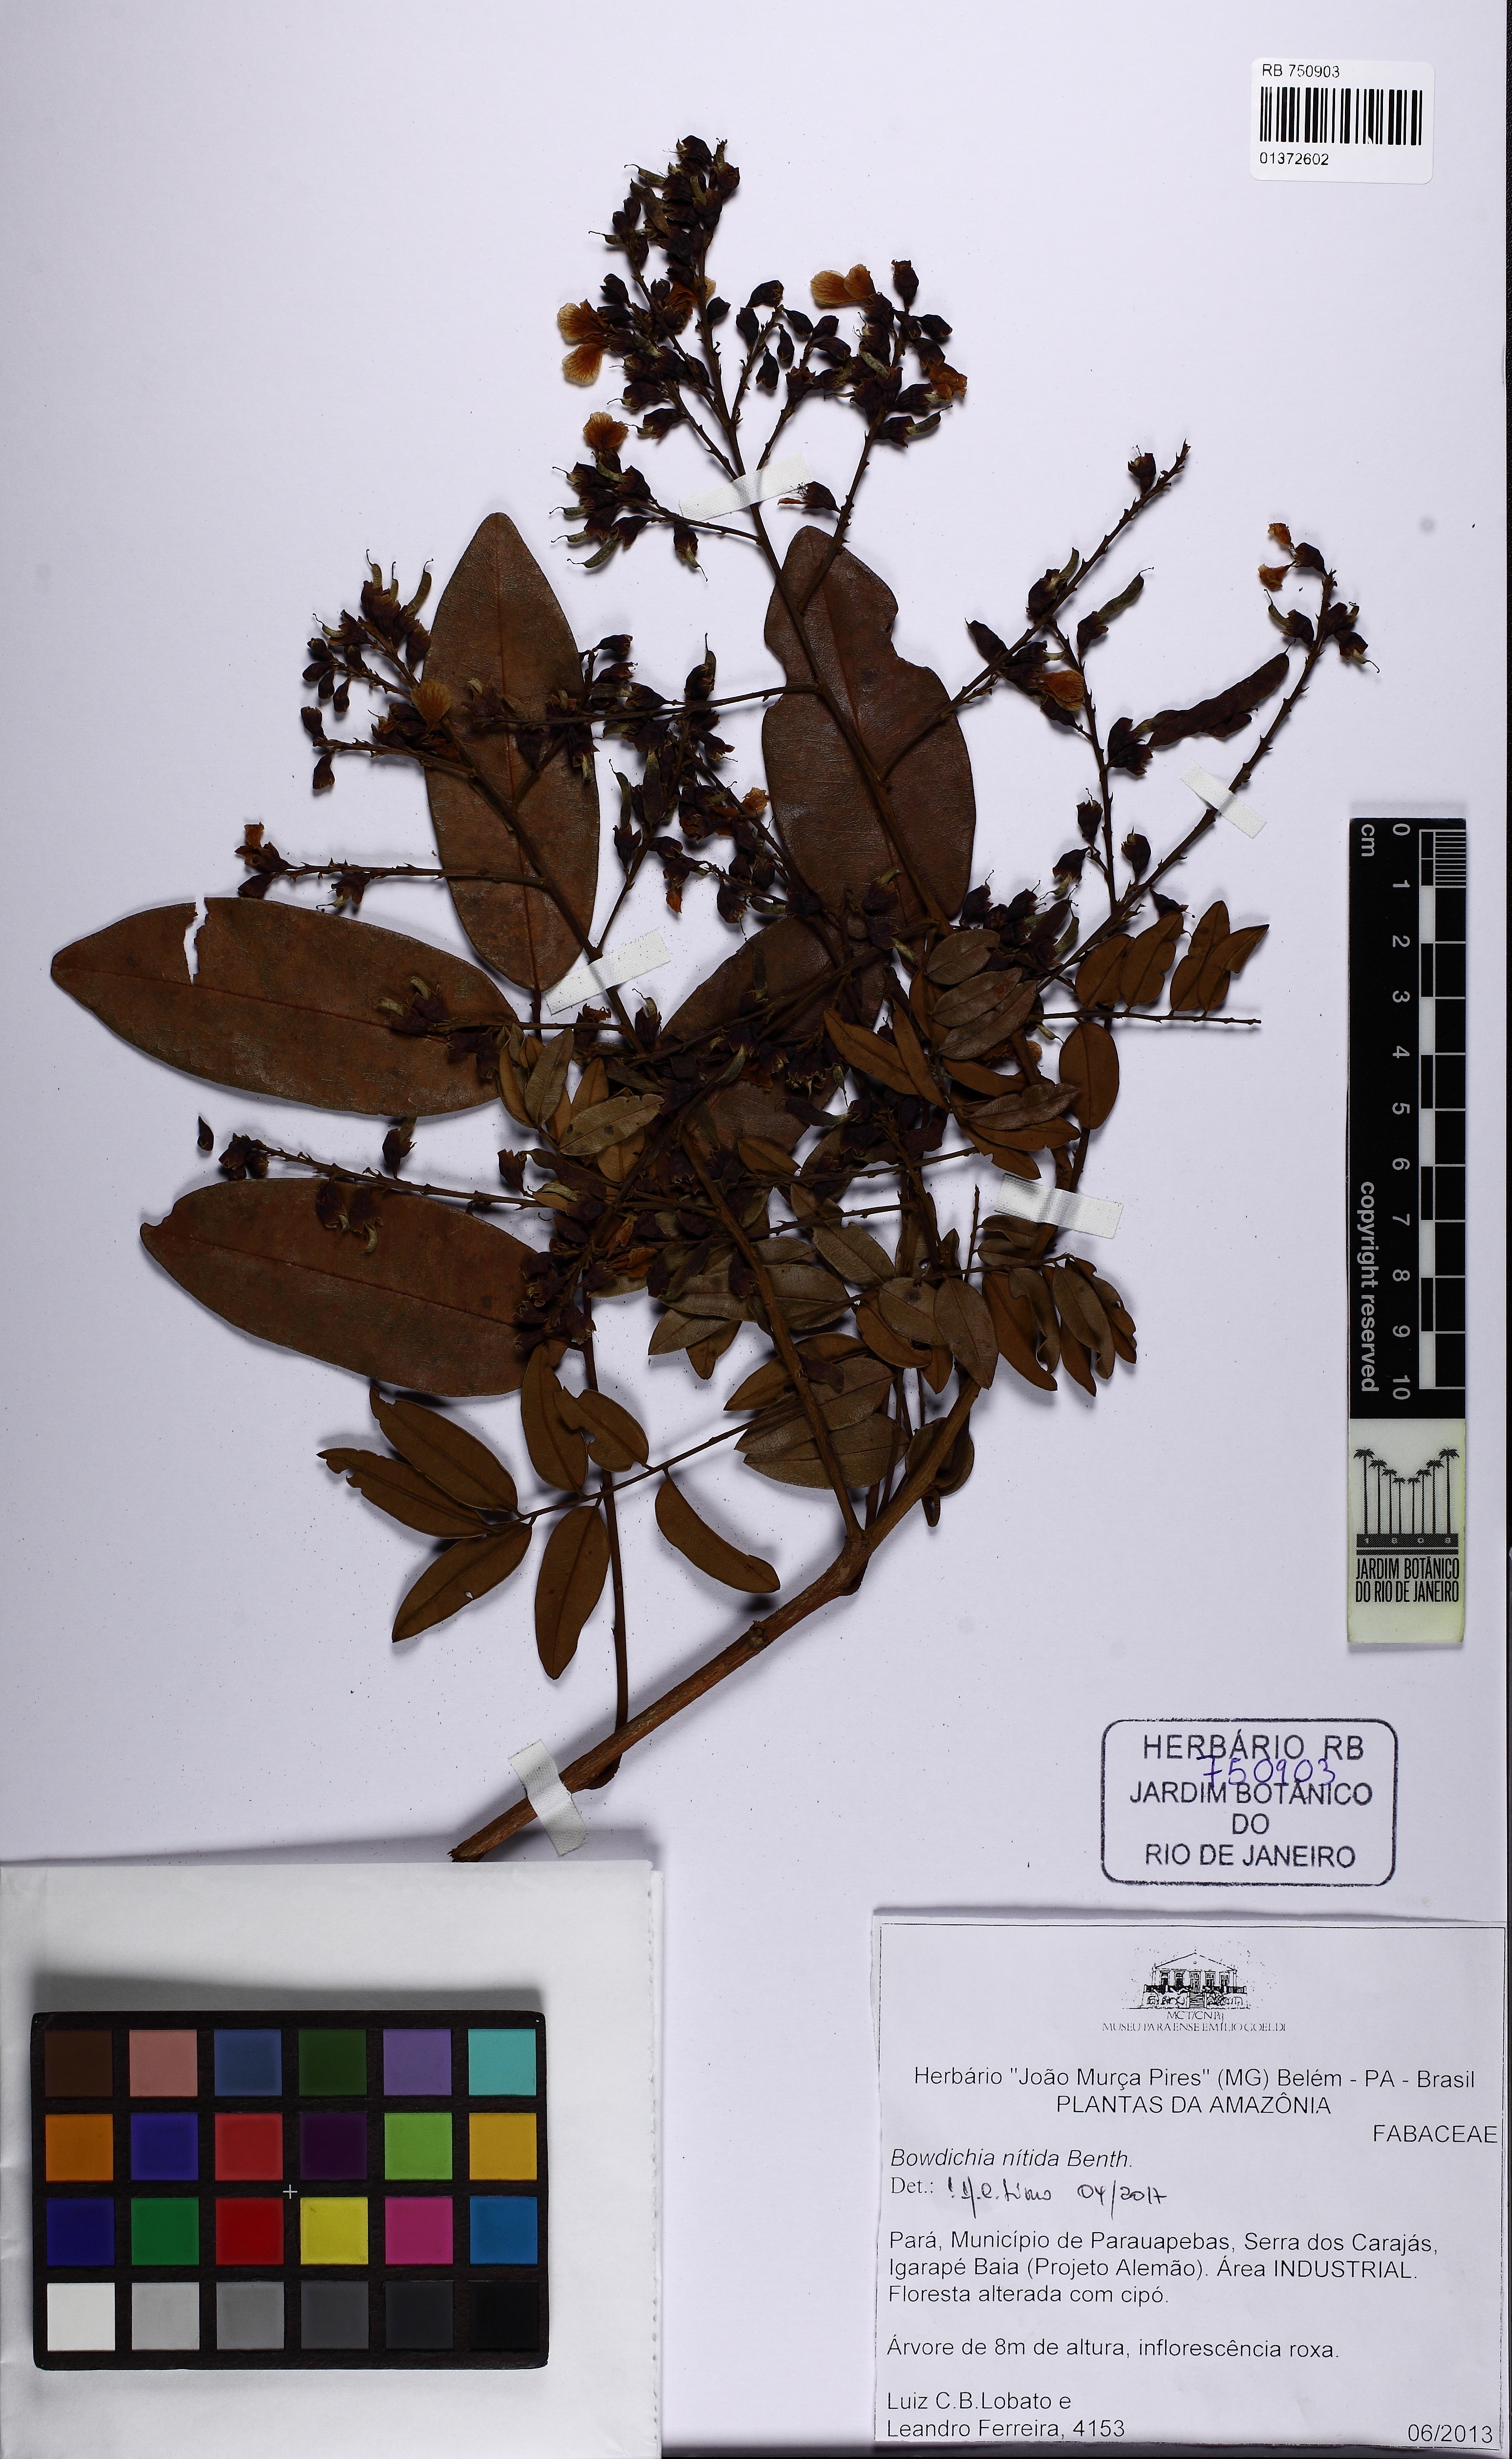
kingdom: Plantae
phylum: Tracheophyta
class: Magnoliopsida
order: Fabales
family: Fabaceae
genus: Bowdichia
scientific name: Bowdichia nitida
